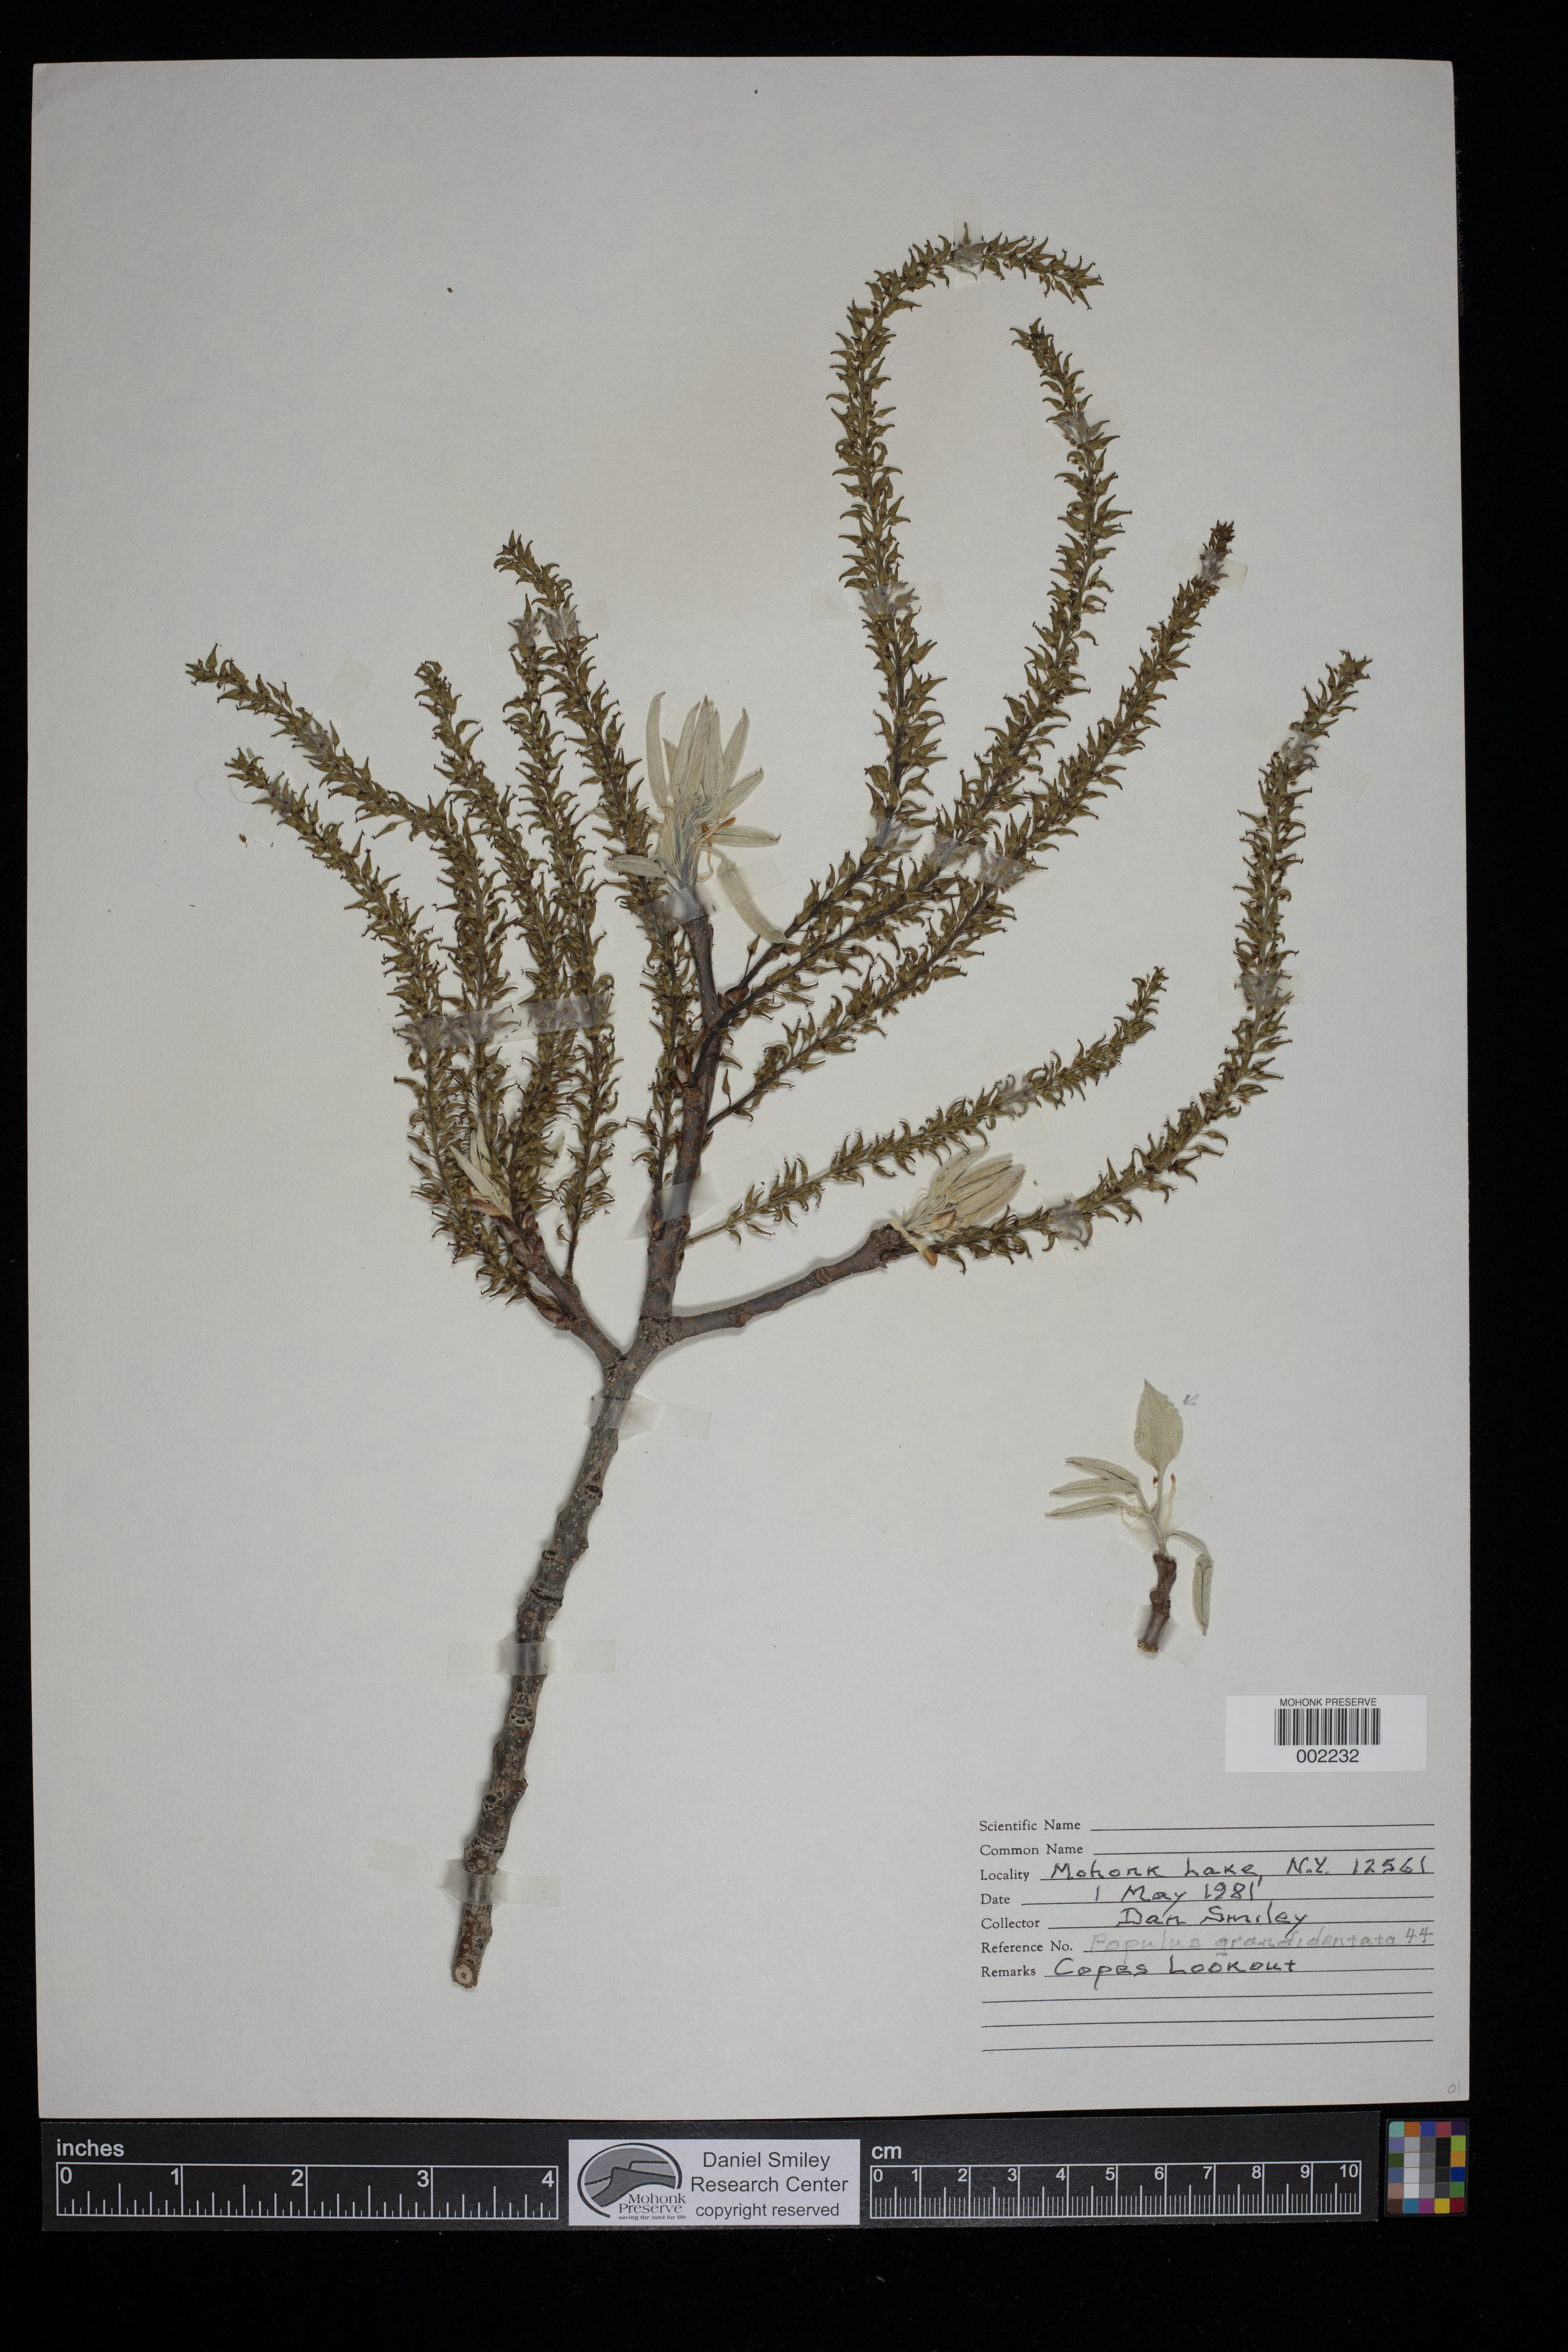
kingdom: Plantae
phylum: Tracheophyta
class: Magnoliopsida
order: Malpighiales
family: Salicaceae
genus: Populus
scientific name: Populus grandidentata
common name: Bigtooth aspen
